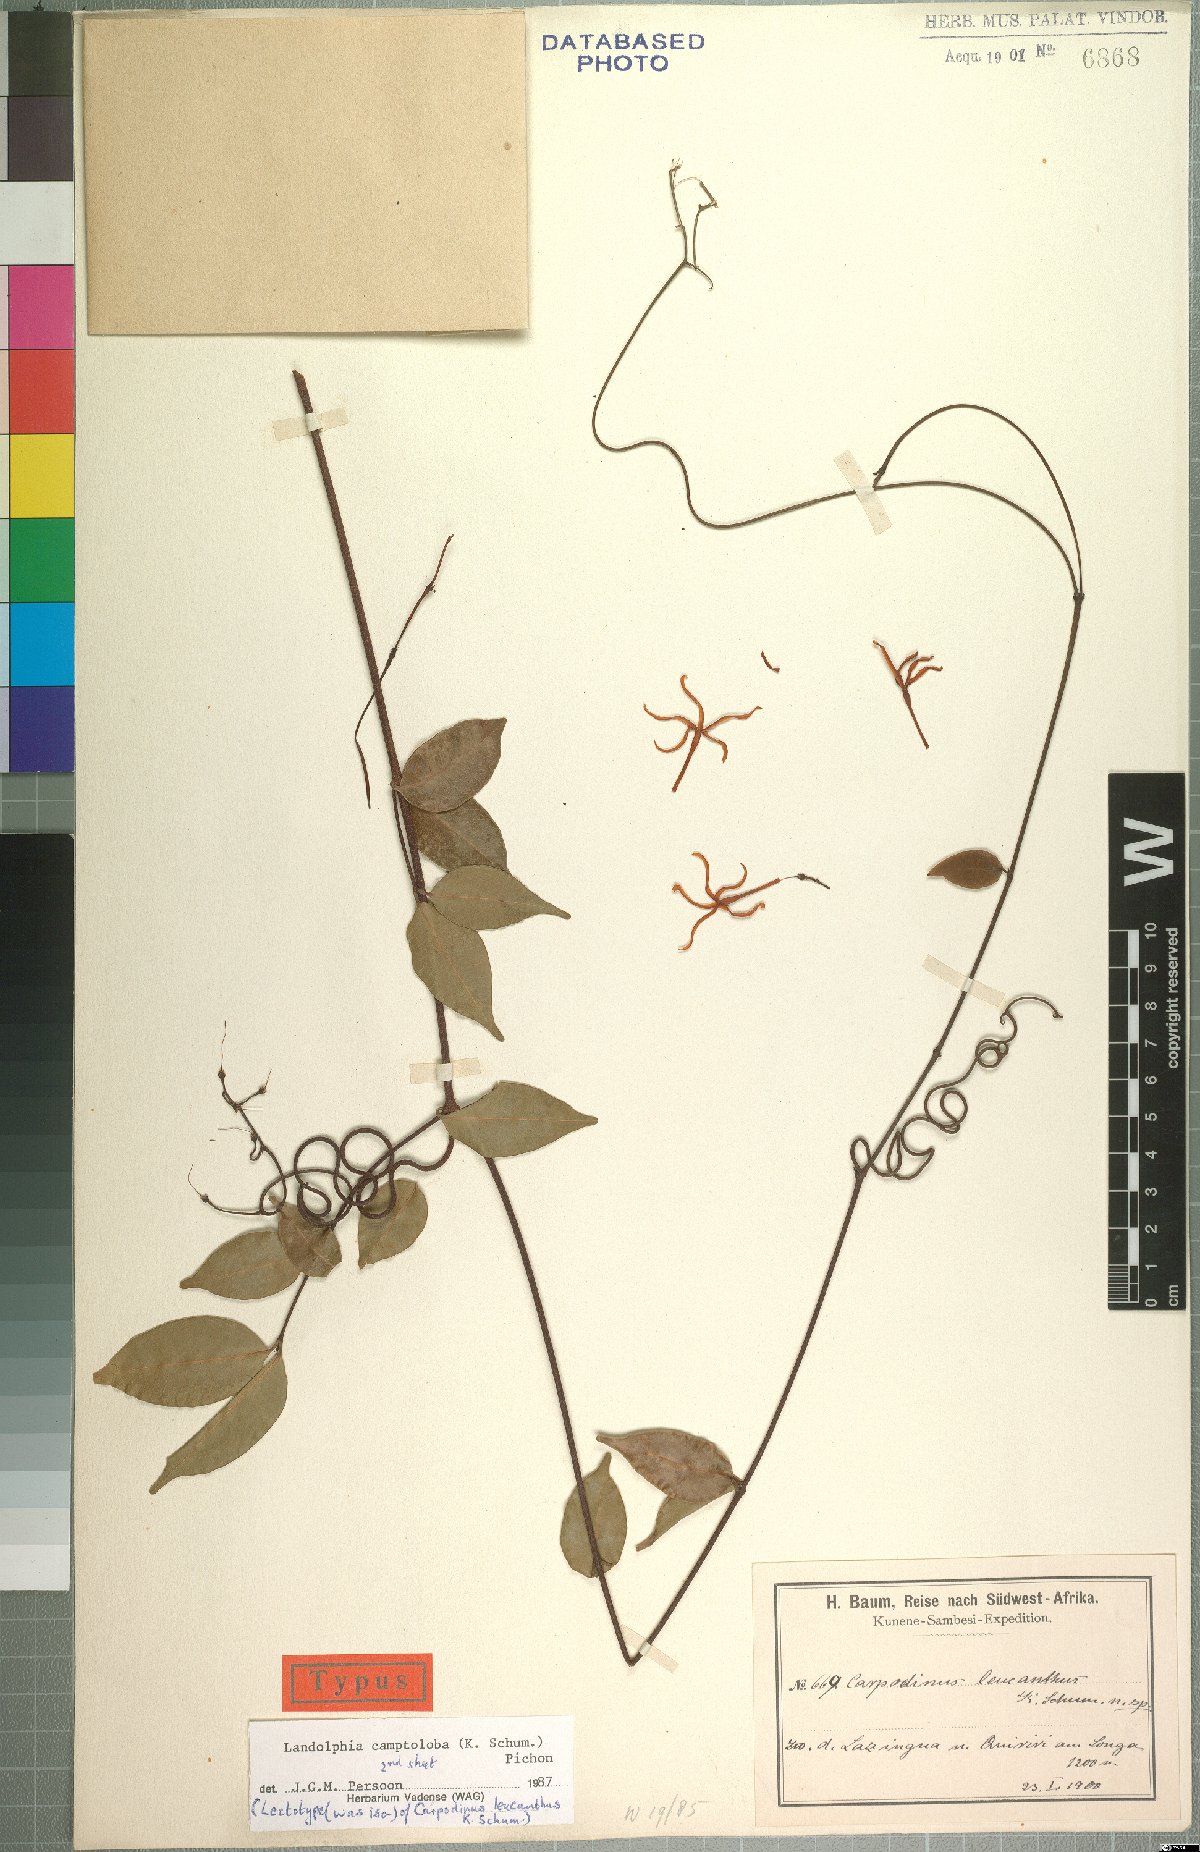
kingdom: Plantae
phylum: Tracheophyta
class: Magnoliopsida
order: Gentianales
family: Apocynaceae
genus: Landolphia
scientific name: Landolphia camptoloba
